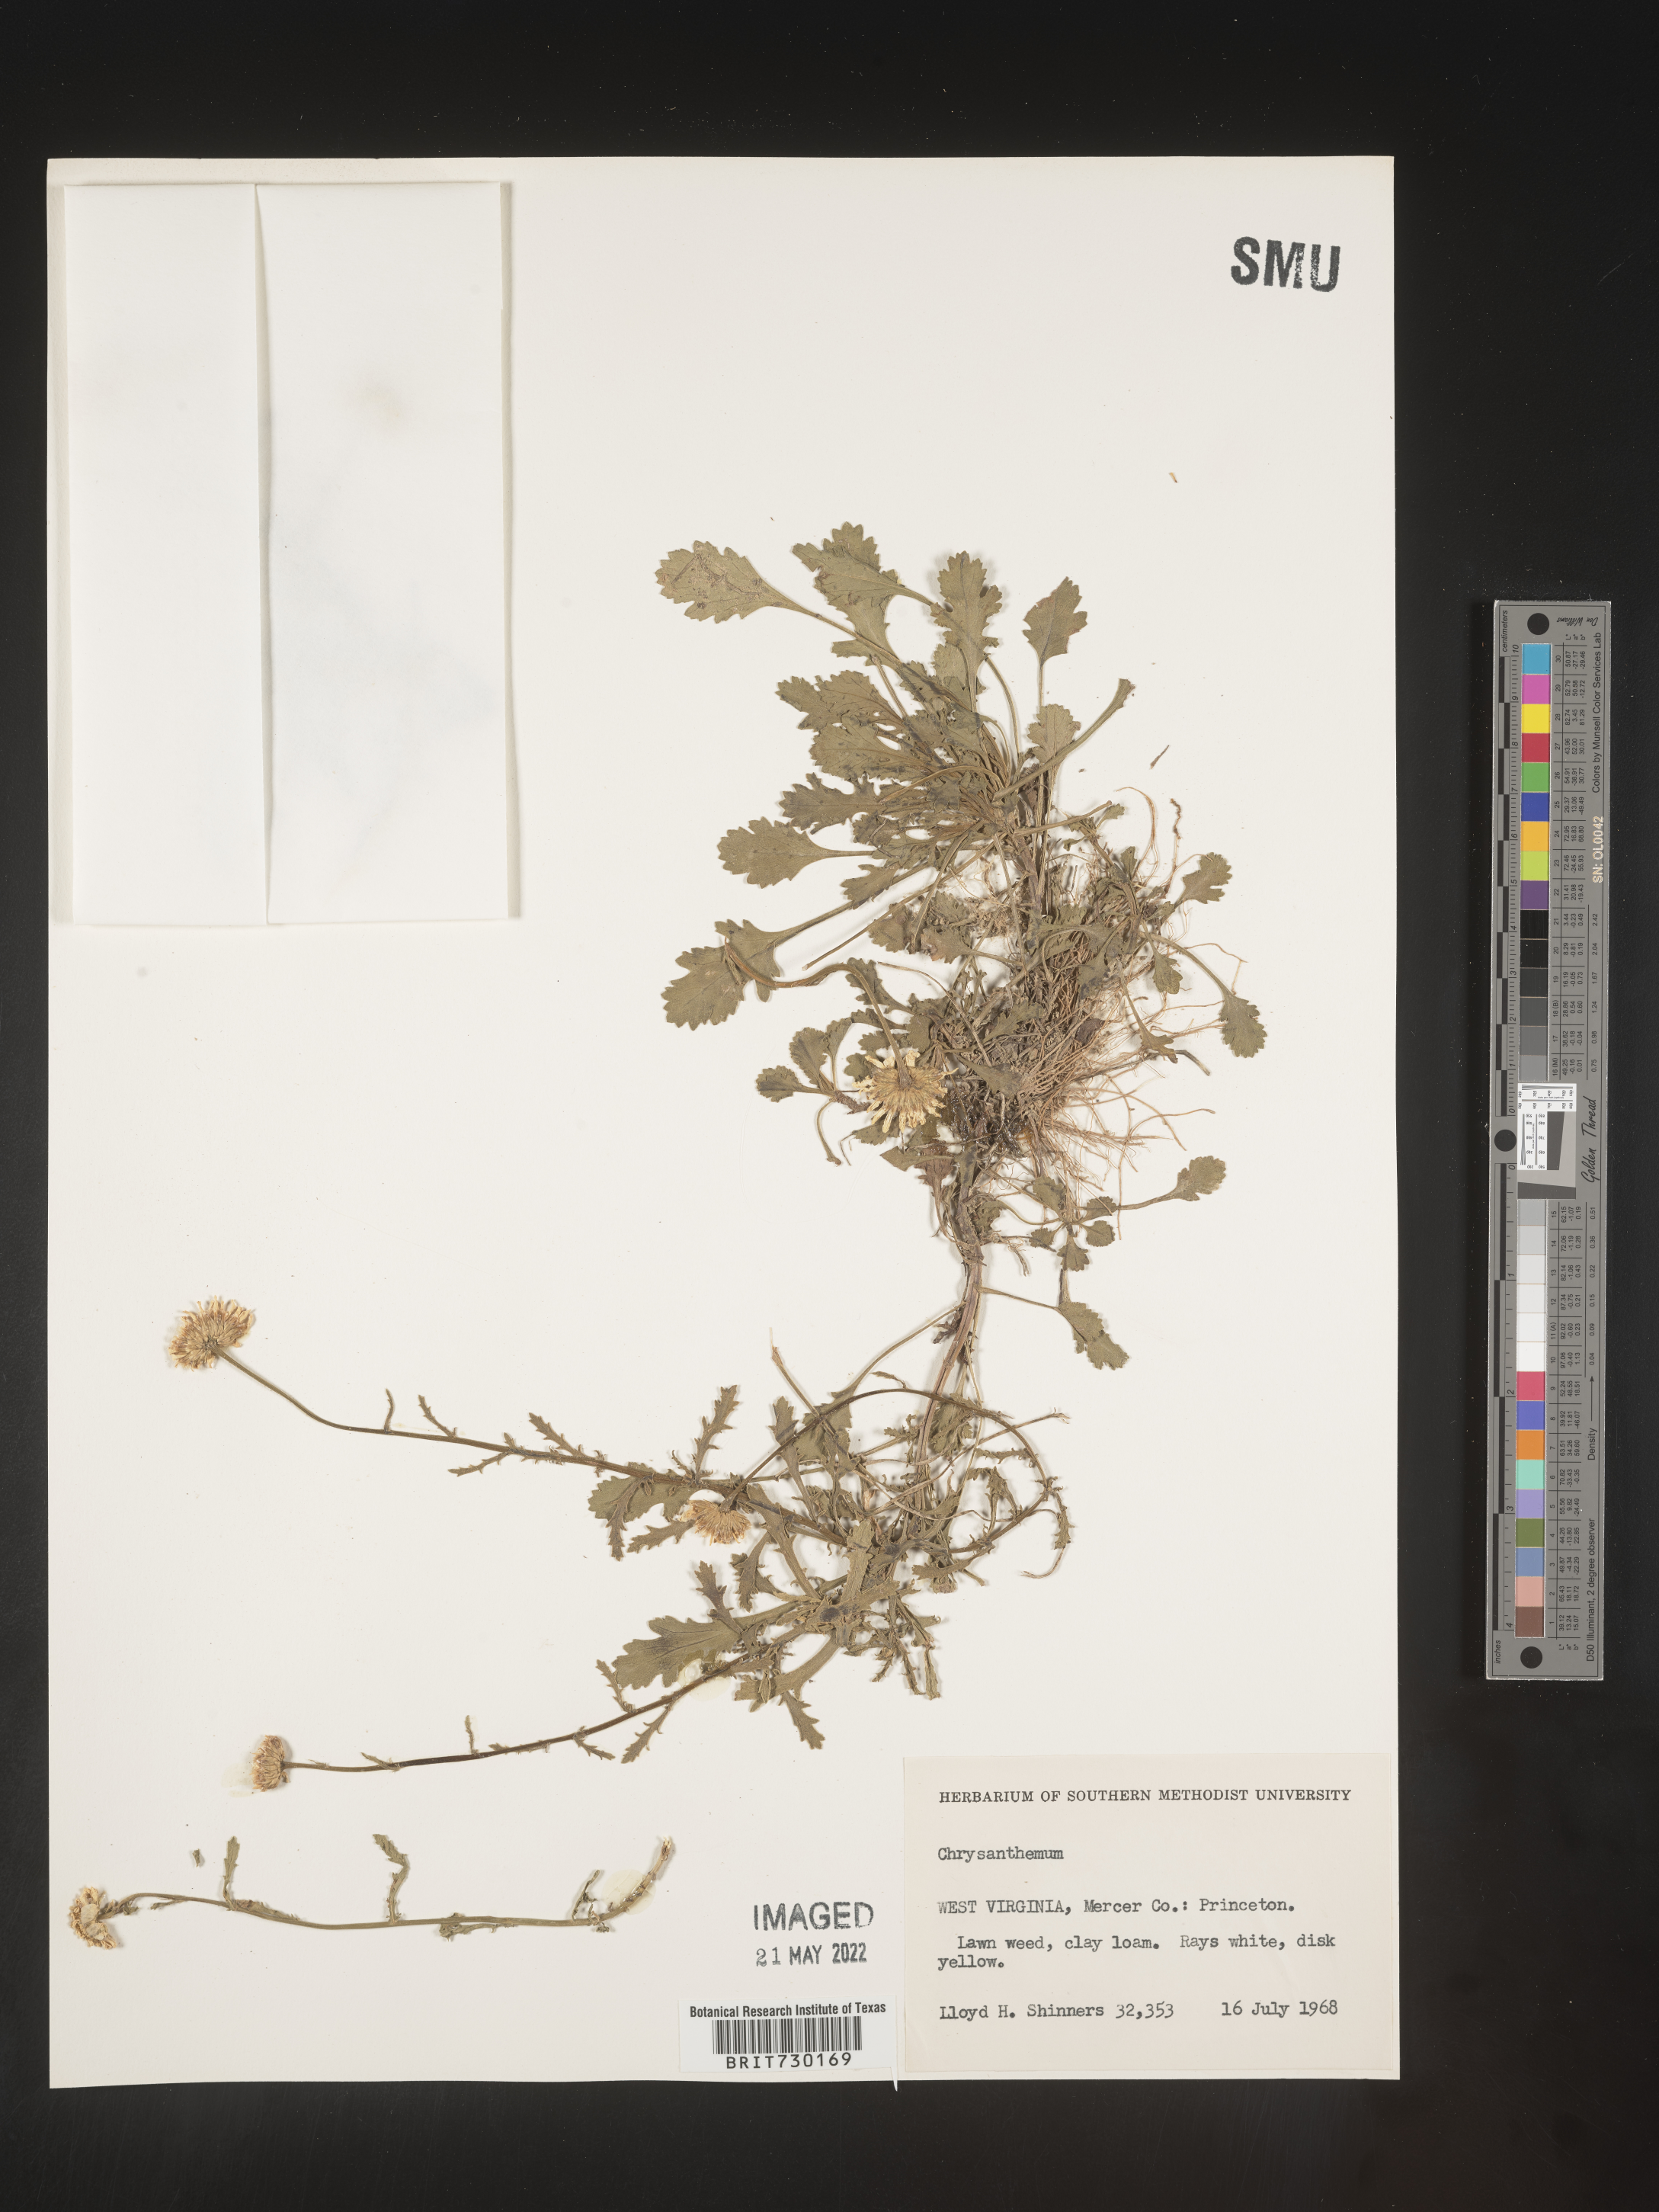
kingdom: Plantae
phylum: Tracheophyta
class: Magnoliopsida
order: Asterales
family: Asteraceae
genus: Leucanthemum
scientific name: Leucanthemum vulgare
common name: Oxeye daisy
